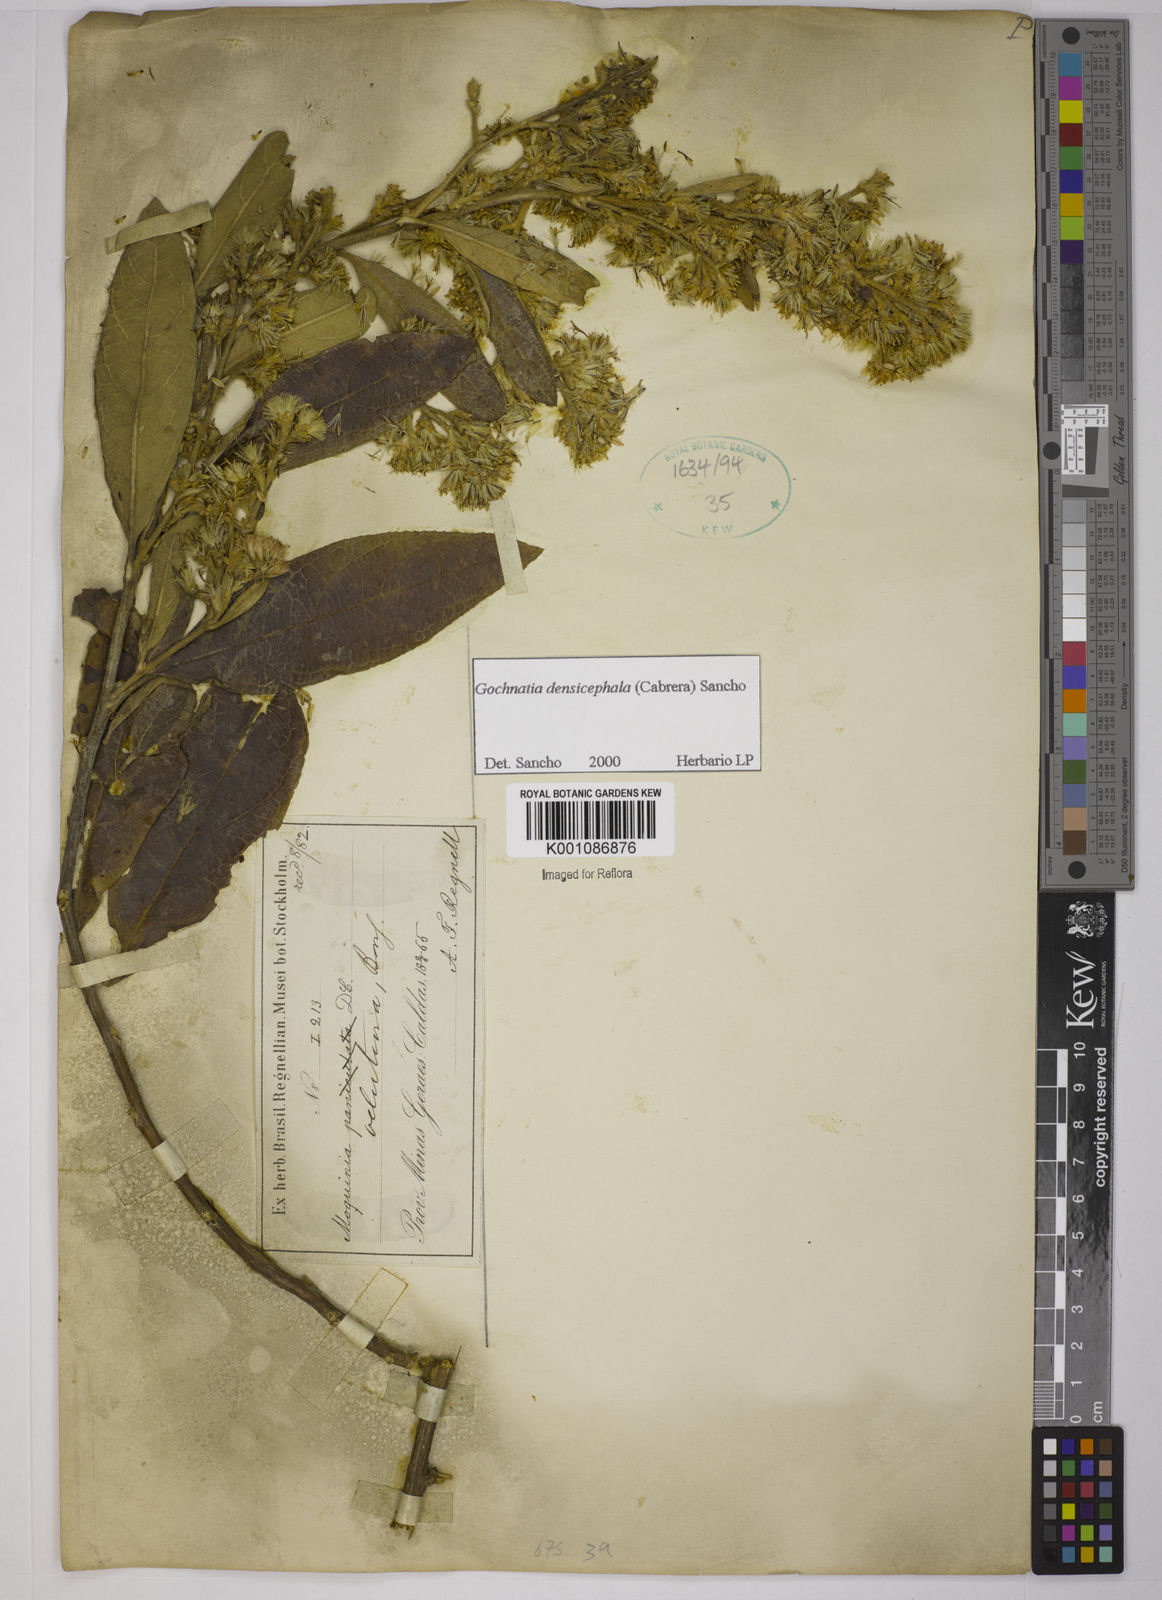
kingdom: Plantae
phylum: Tracheophyta
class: Magnoliopsida
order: Asterales
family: Asteraceae
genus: Moquiniastrum
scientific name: Moquiniastrum densicephalum
